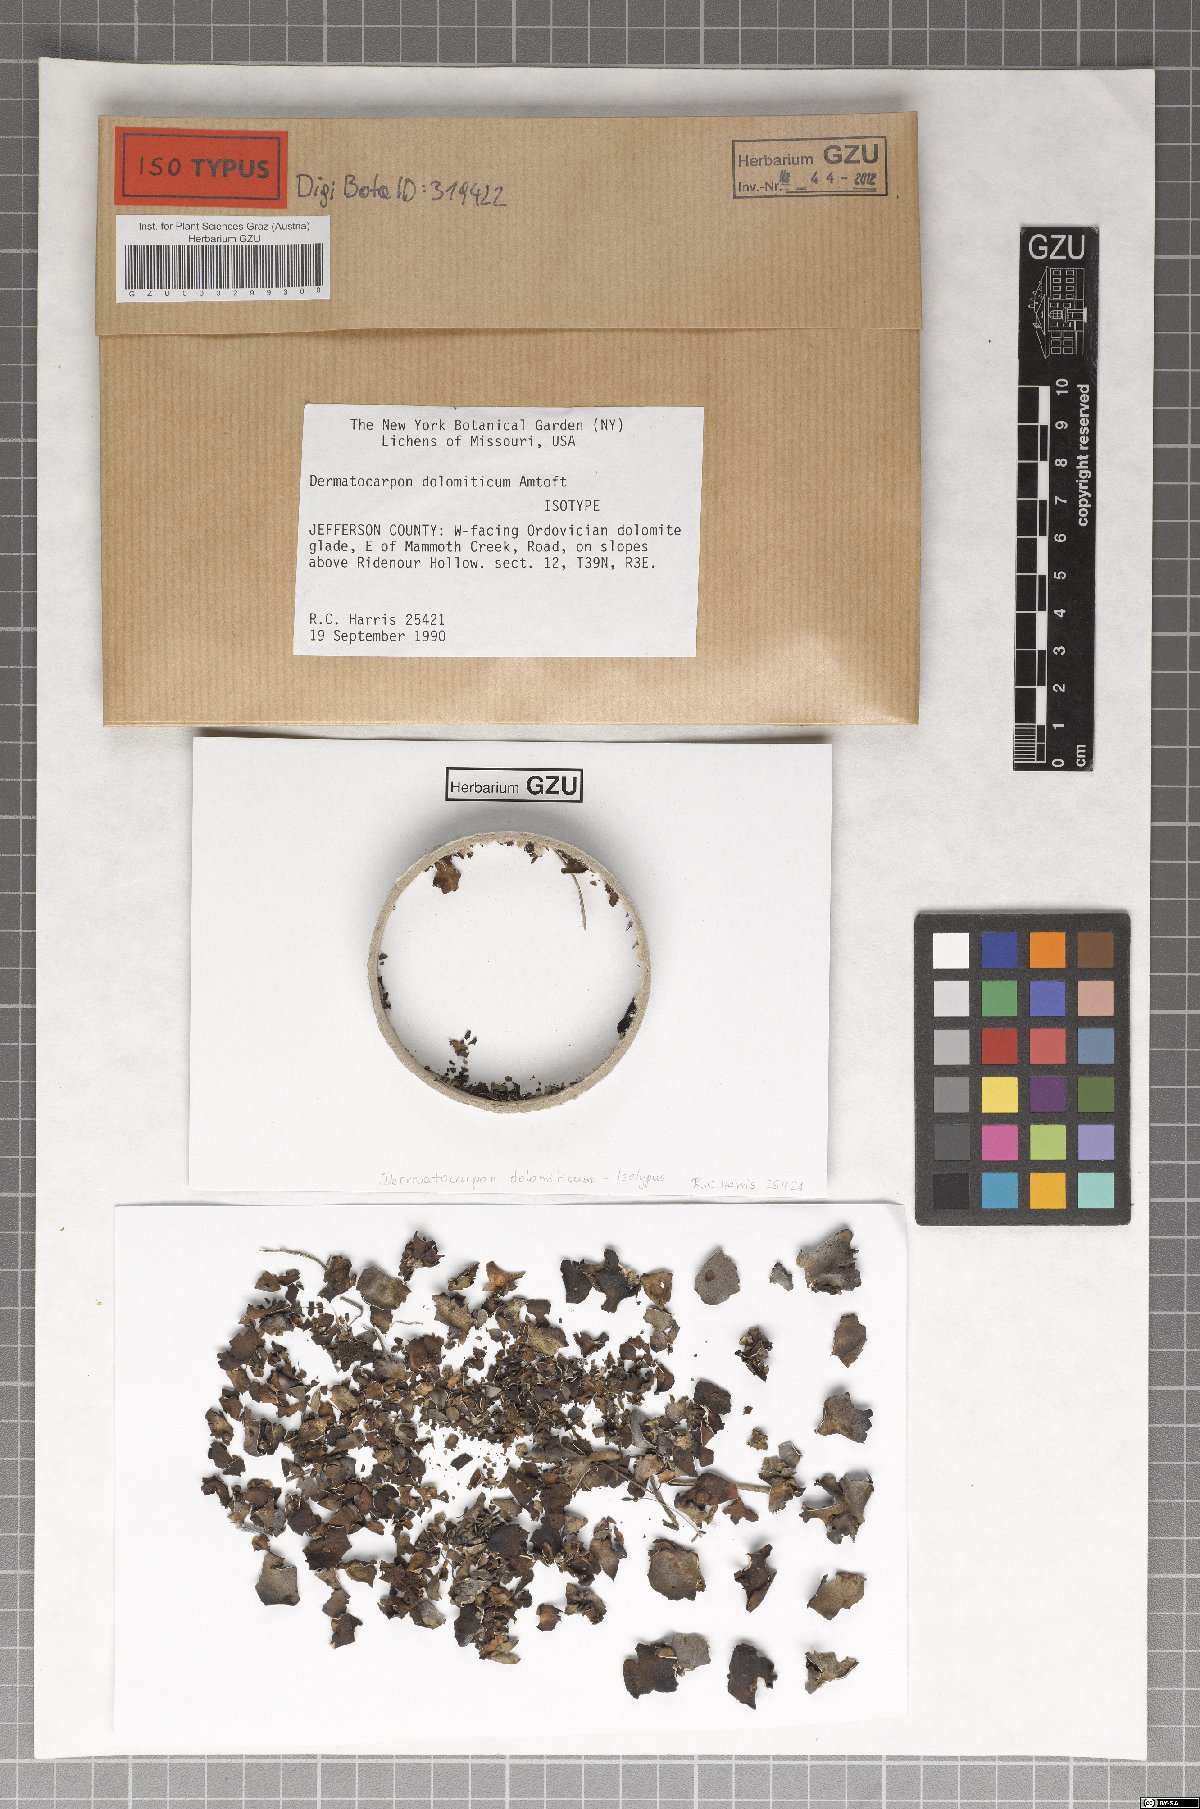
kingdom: Fungi
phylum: Ascomycota
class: Eurotiomycetes
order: Verrucariales
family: Verrucariaceae
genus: Dermatocarpon
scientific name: Dermatocarpon dolomiticum
